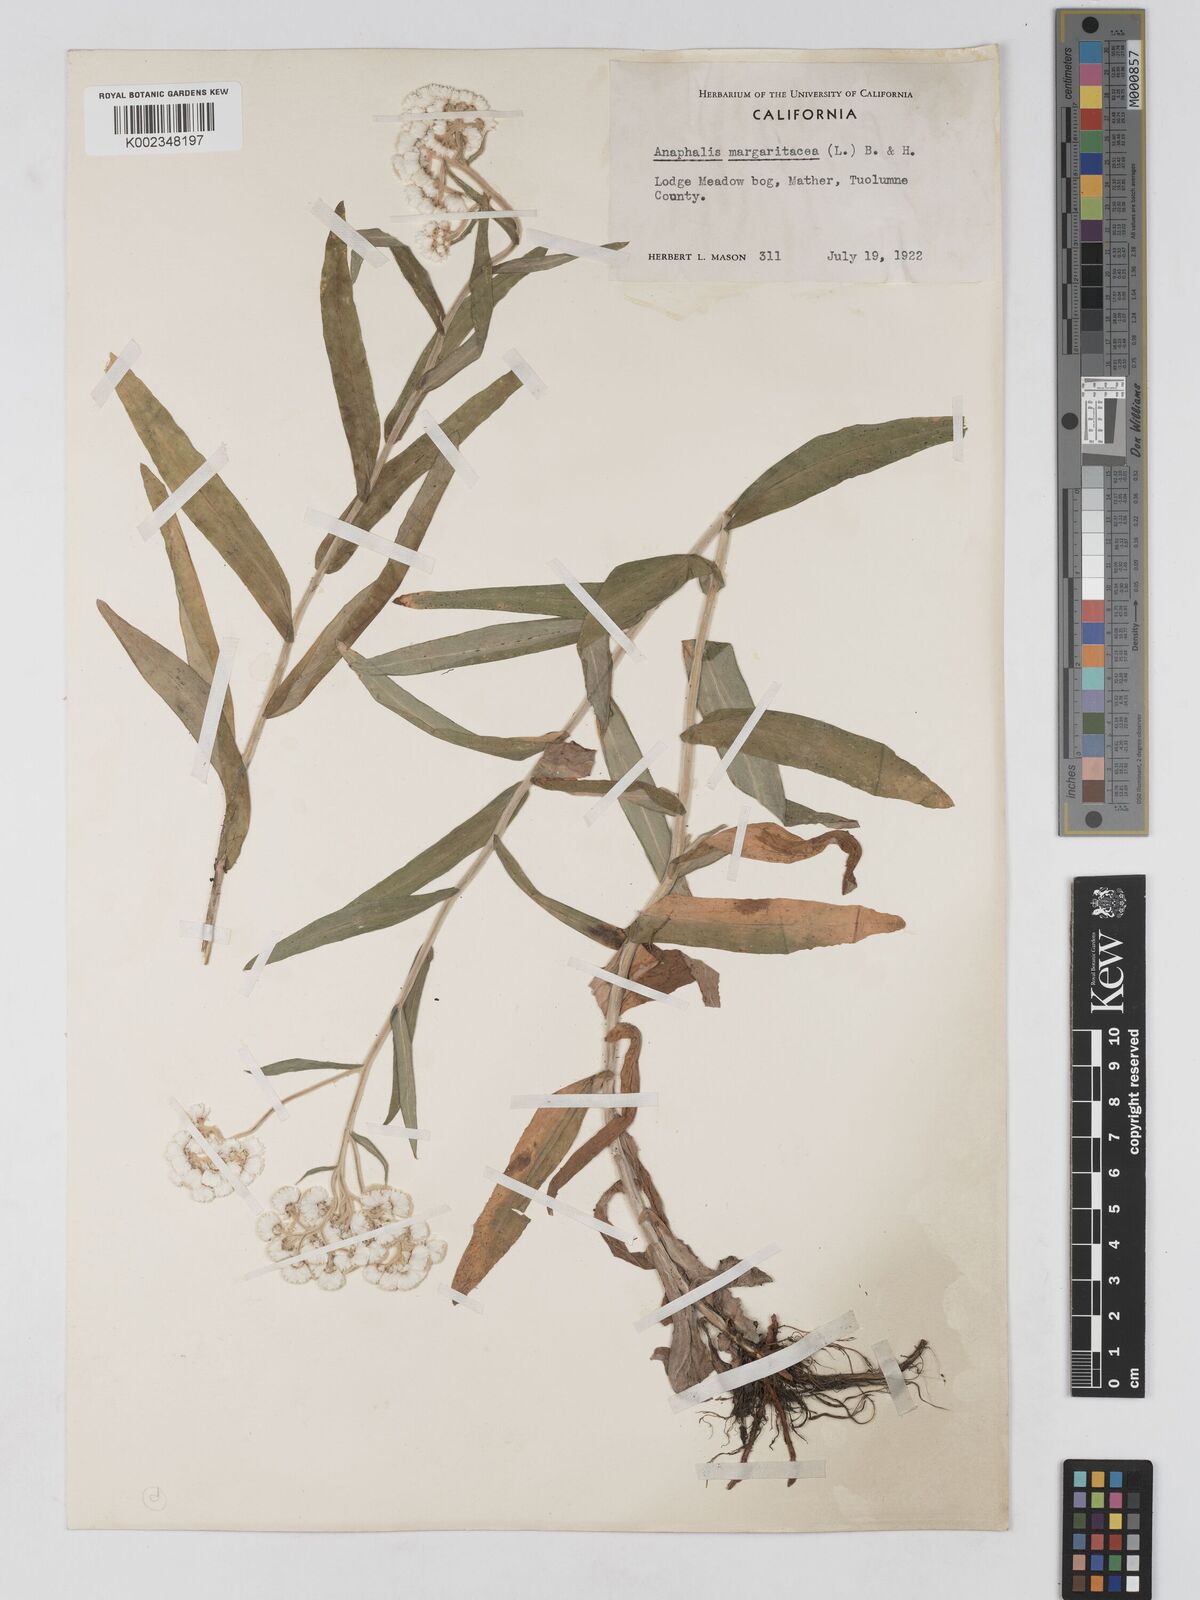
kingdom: Plantae
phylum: Tracheophyta
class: Magnoliopsida
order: Asterales
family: Asteraceae
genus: Anaphalis
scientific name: Anaphalis margaritacea
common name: Pearly everlasting
